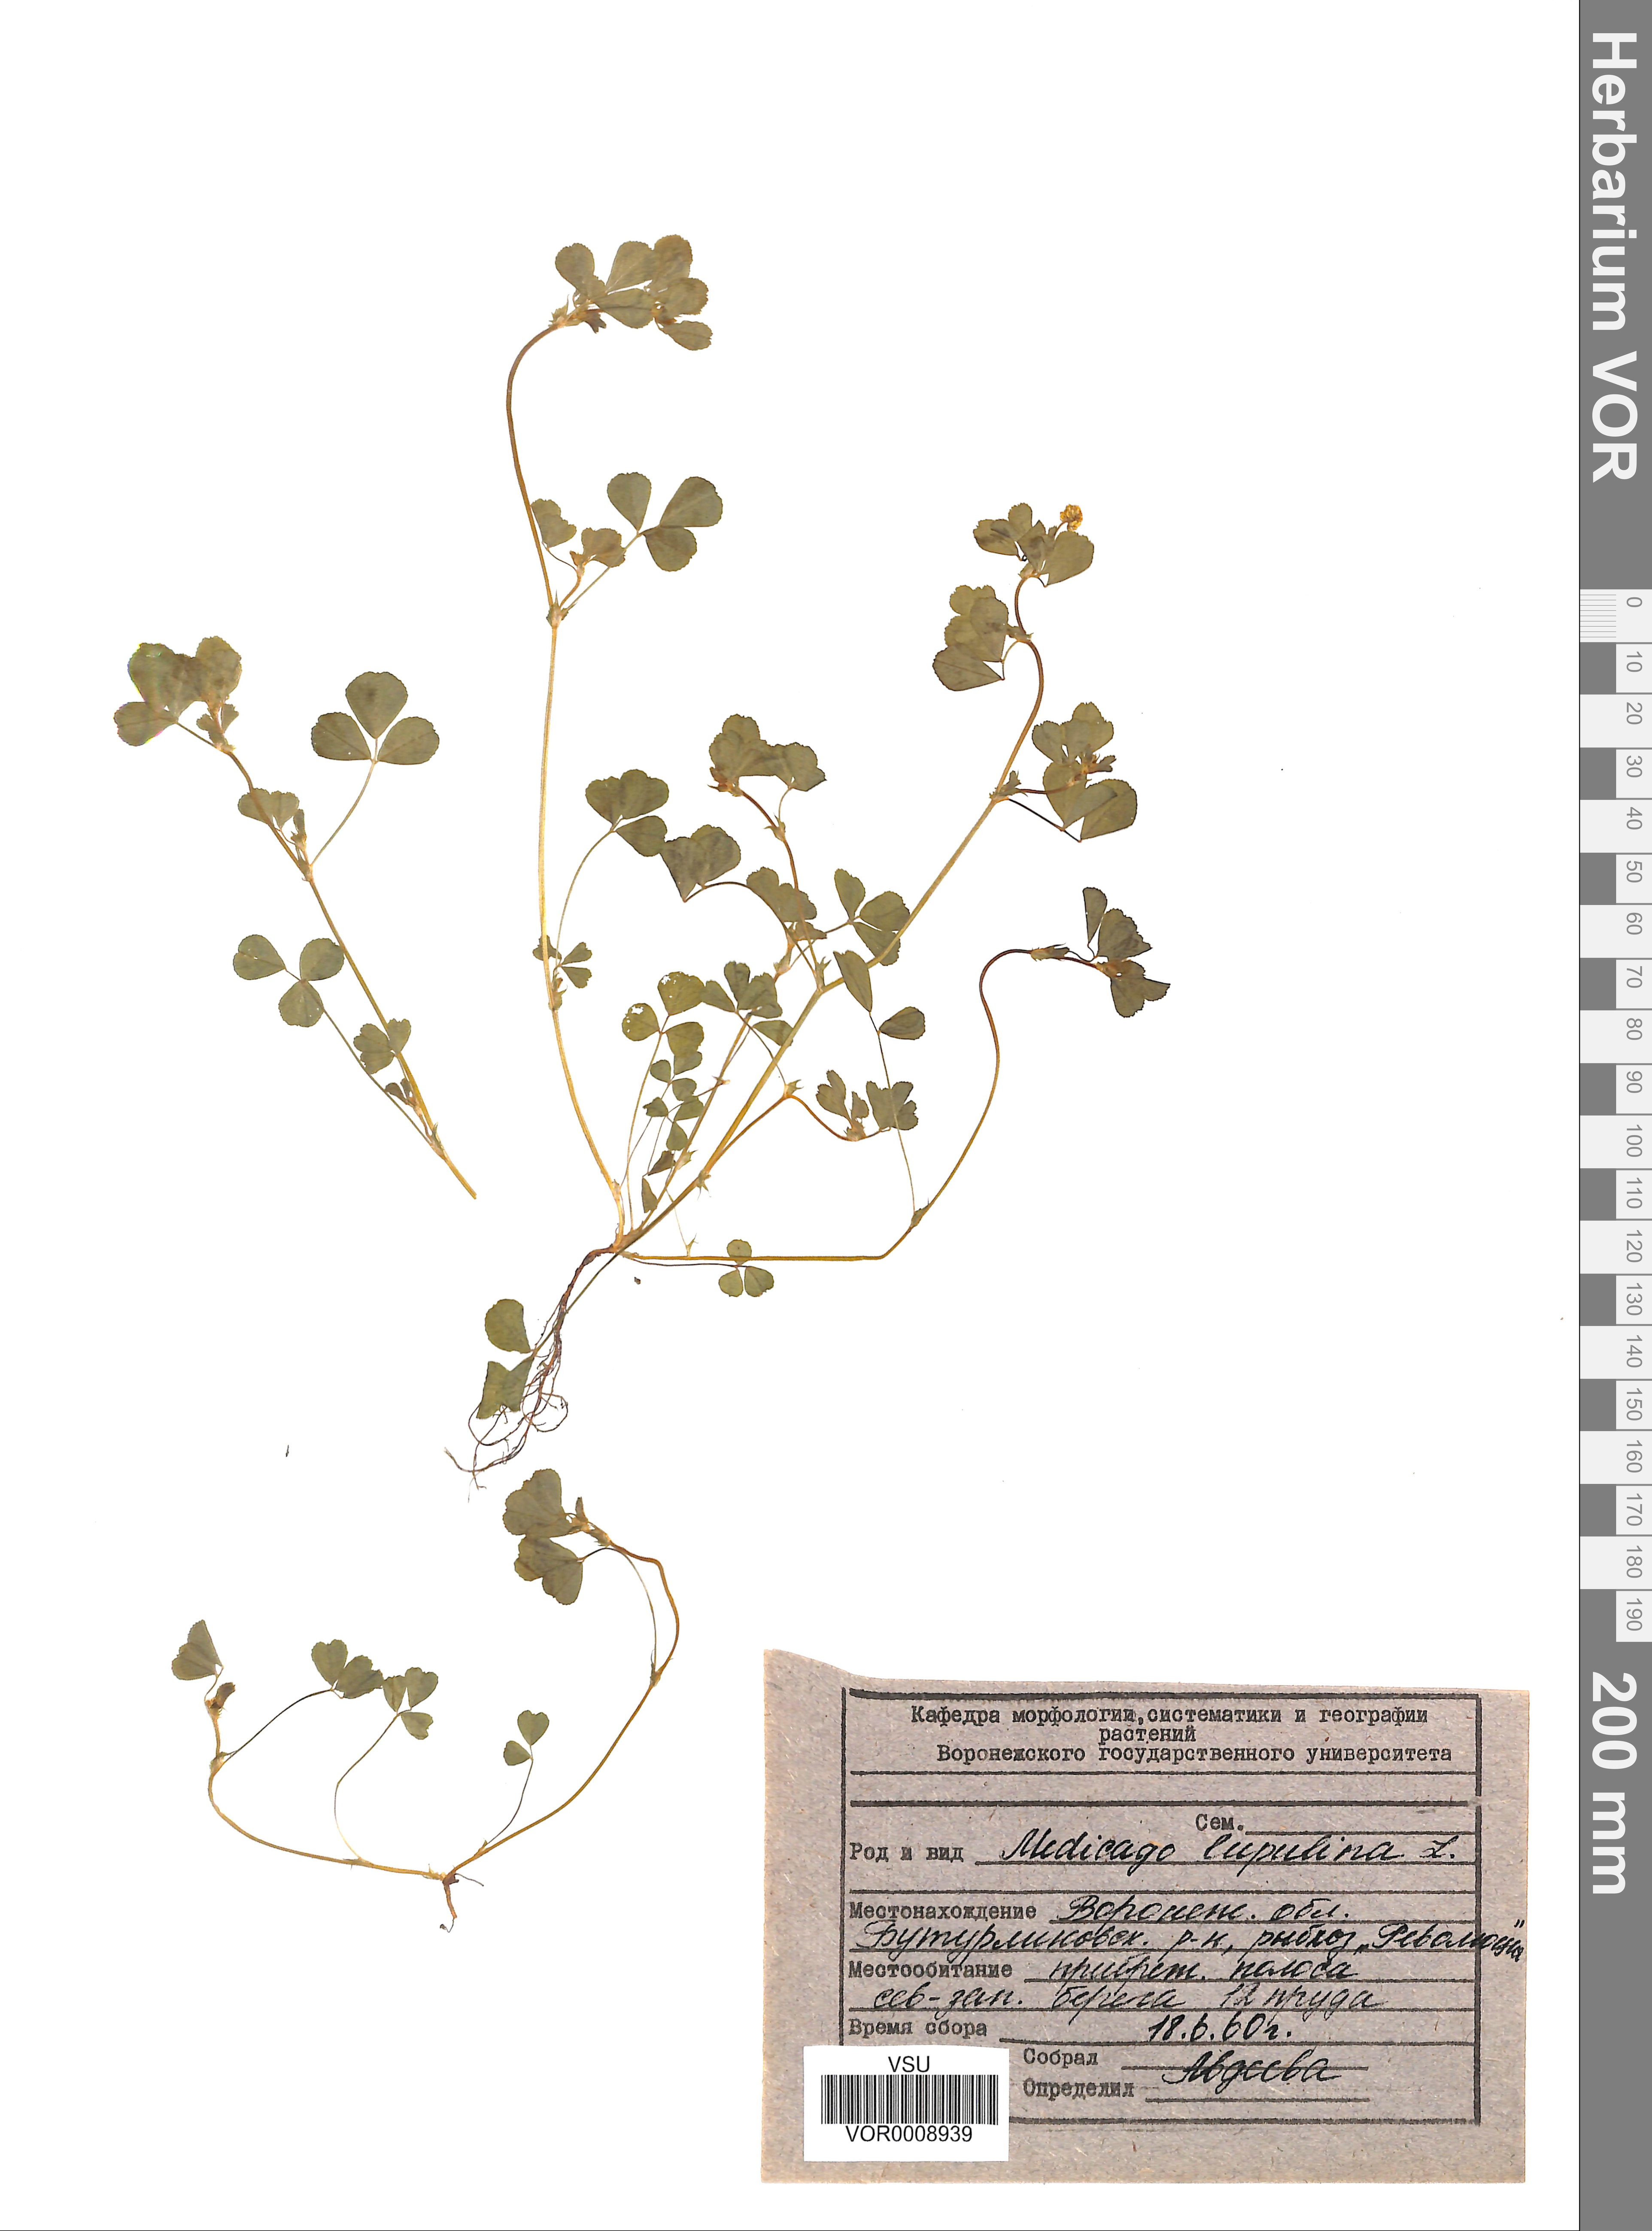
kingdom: Plantae
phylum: Tracheophyta
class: Magnoliopsida
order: Fabales
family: Fabaceae
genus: Medicago
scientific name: Medicago lupulina
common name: Black medick
